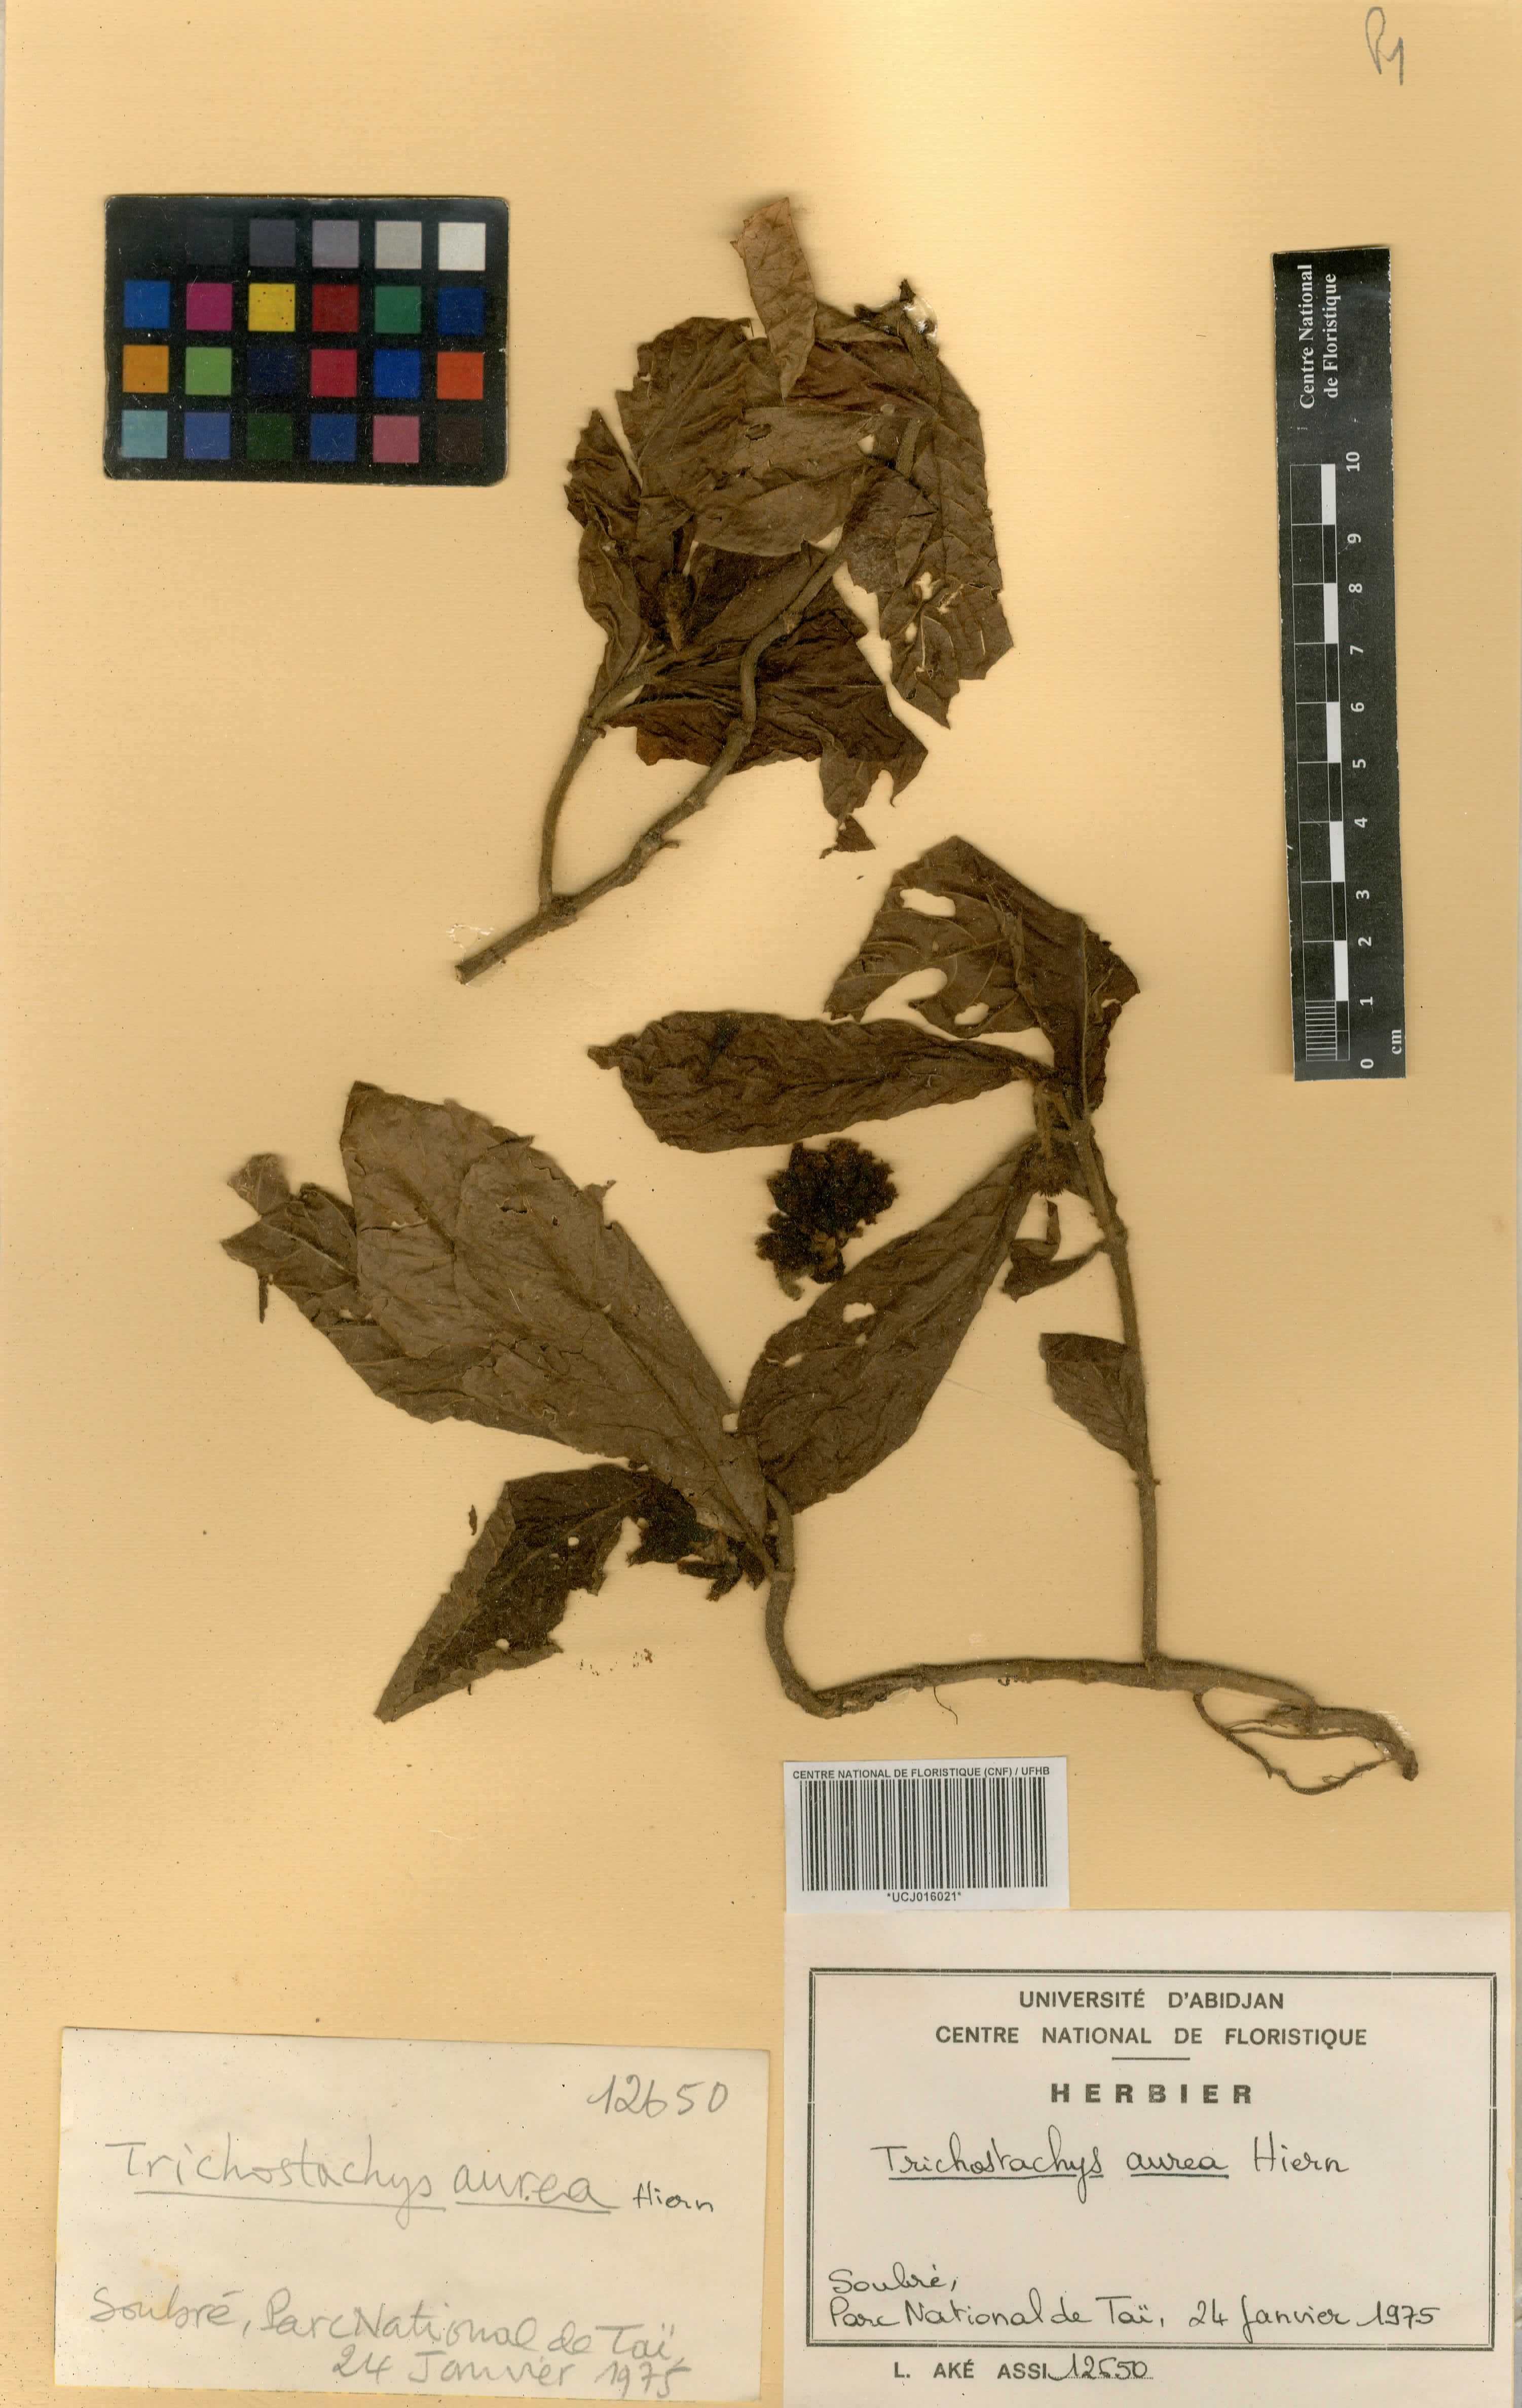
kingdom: Plantae
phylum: Tracheophyta
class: Magnoliopsida
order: Gentianales
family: Rubiaceae
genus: Trichostachys
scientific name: Trichostachys aurea
